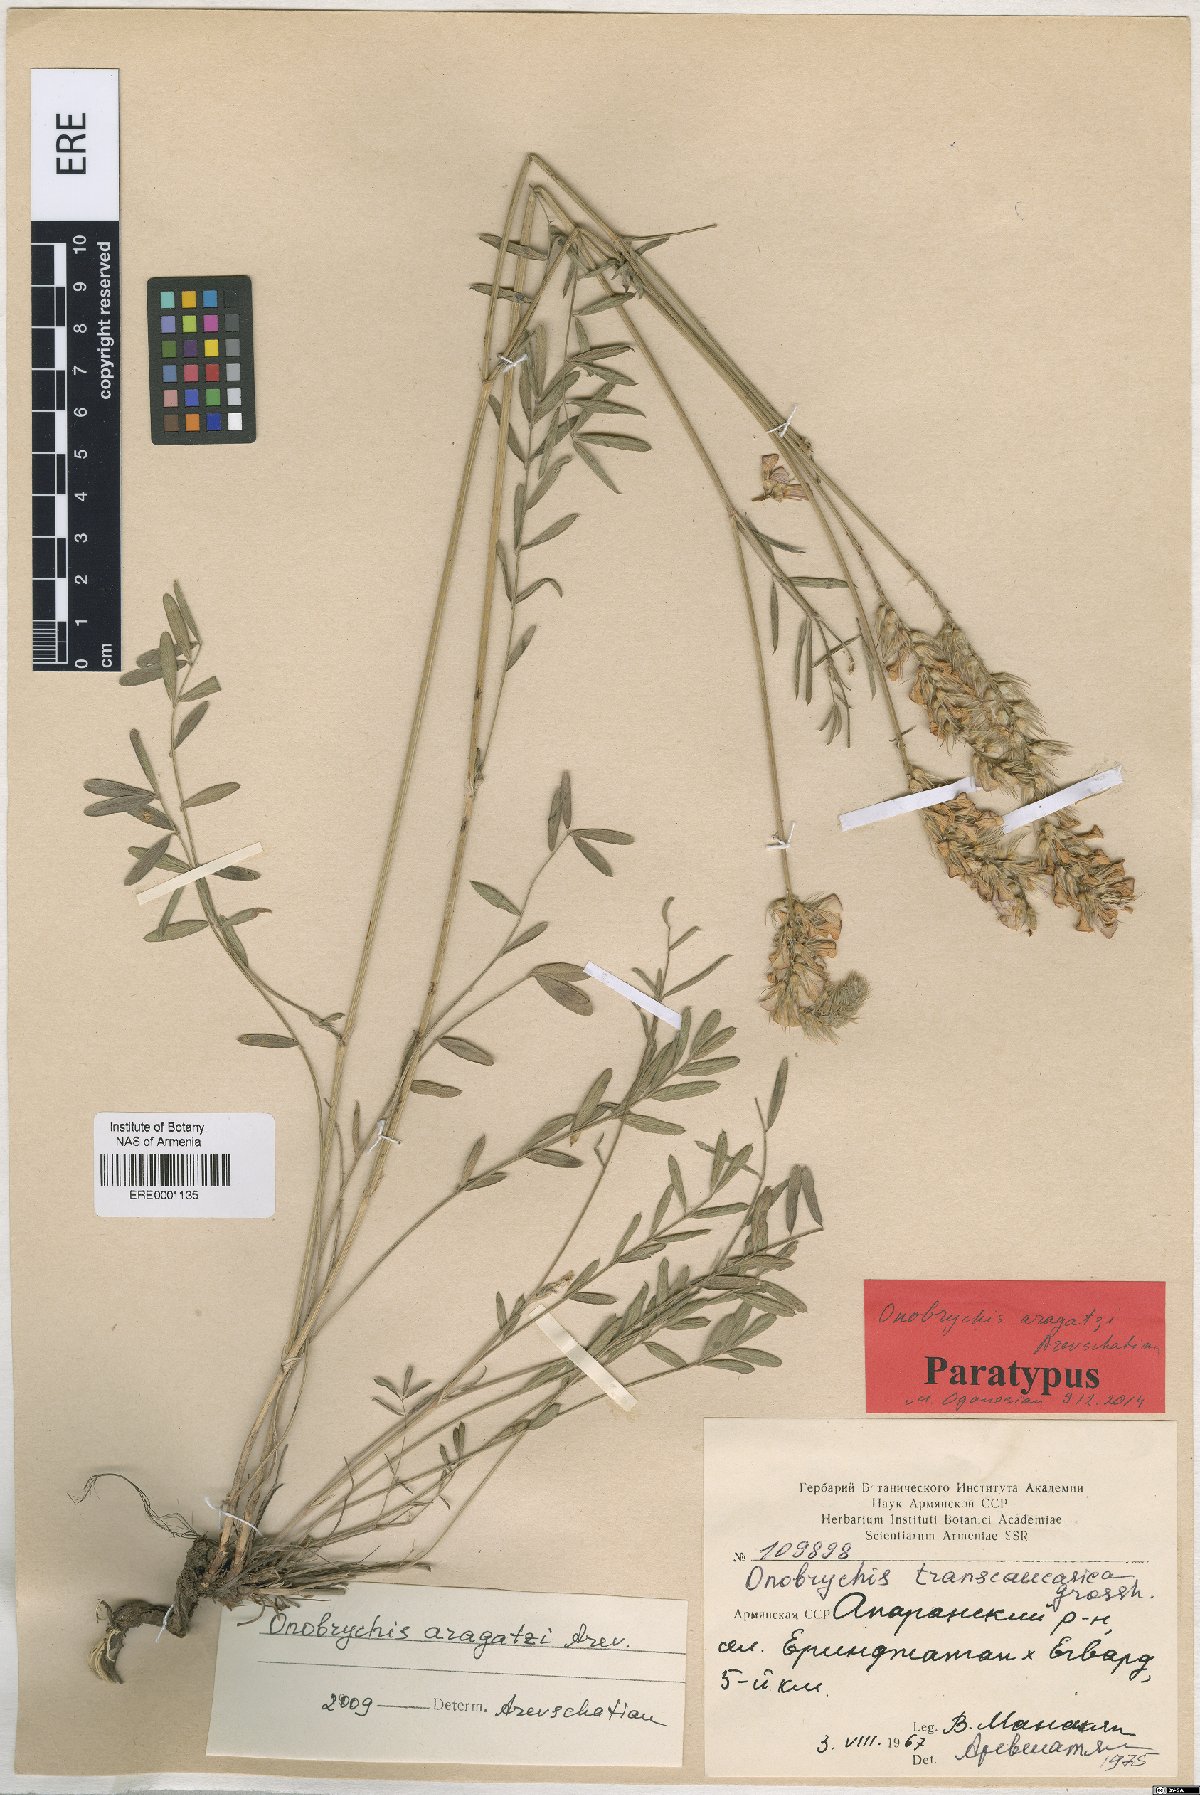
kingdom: Plantae
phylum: Tracheophyta
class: Magnoliopsida
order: Fabales
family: Fabaceae
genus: Onobrychis
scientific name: Onobrychis aragatzi
